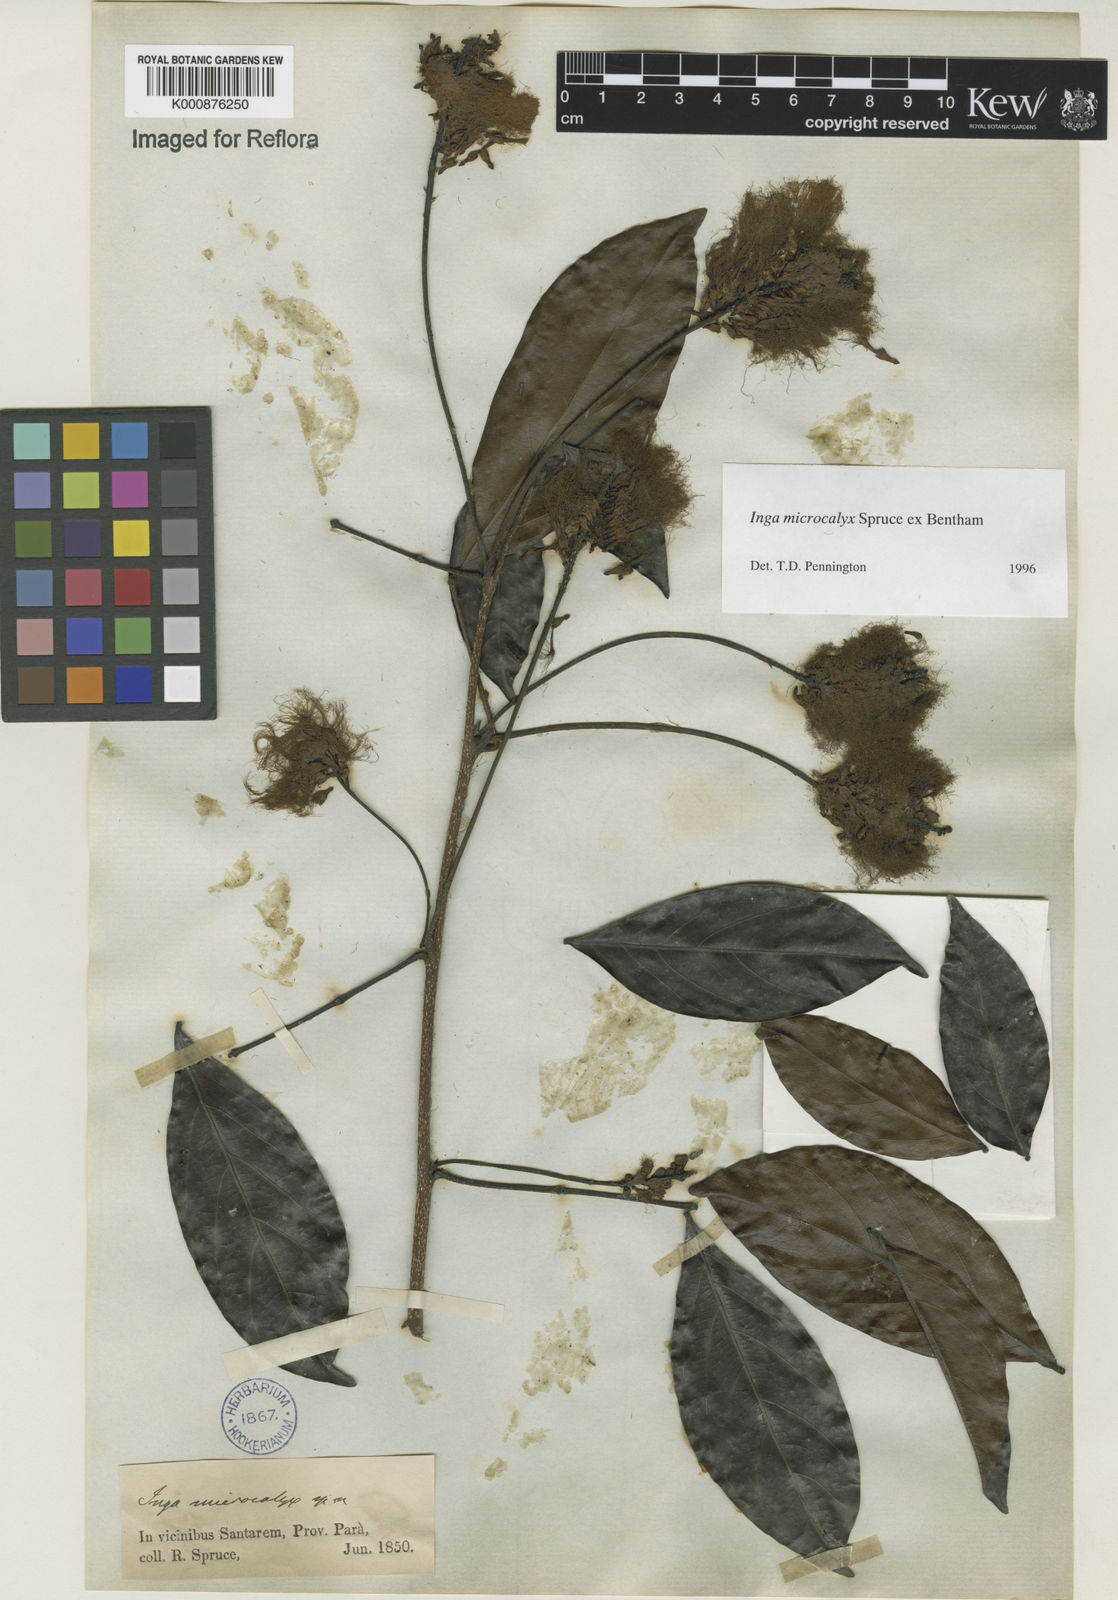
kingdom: Plantae
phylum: Tracheophyta
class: Magnoliopsida
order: Fabales
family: Fabaceae
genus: Inga
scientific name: Inga microcalyx
